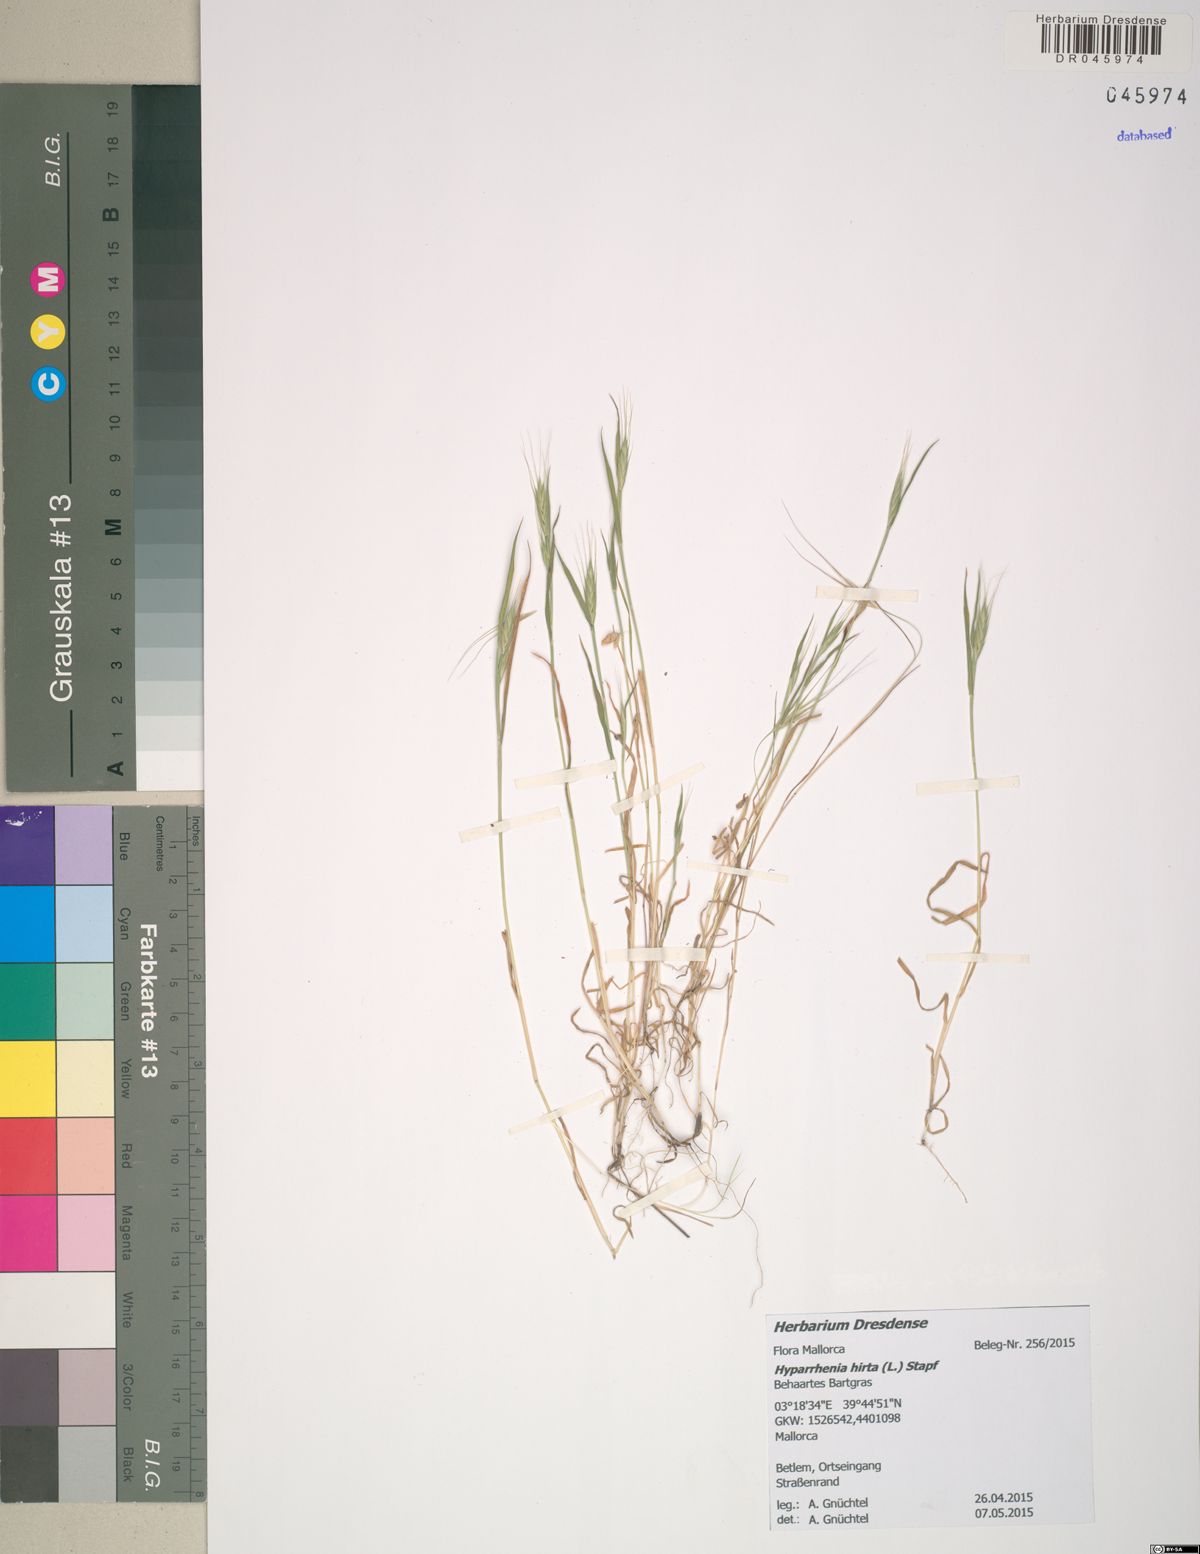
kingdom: Plantae
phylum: Tracheophyta
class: Liliopsida
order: Poales
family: Poaceae
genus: Hyparrhenia
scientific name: Hyparrhenia hirta
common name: Thatching grass
